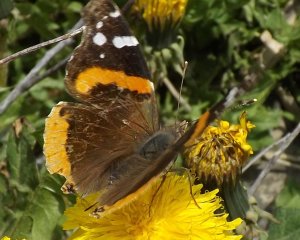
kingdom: Animalia
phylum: Arthropoda
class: Insecta
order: Lepidoptera
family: Nymphalidae
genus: Vanessa
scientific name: Vanessa atalanta
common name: Red Admiral
